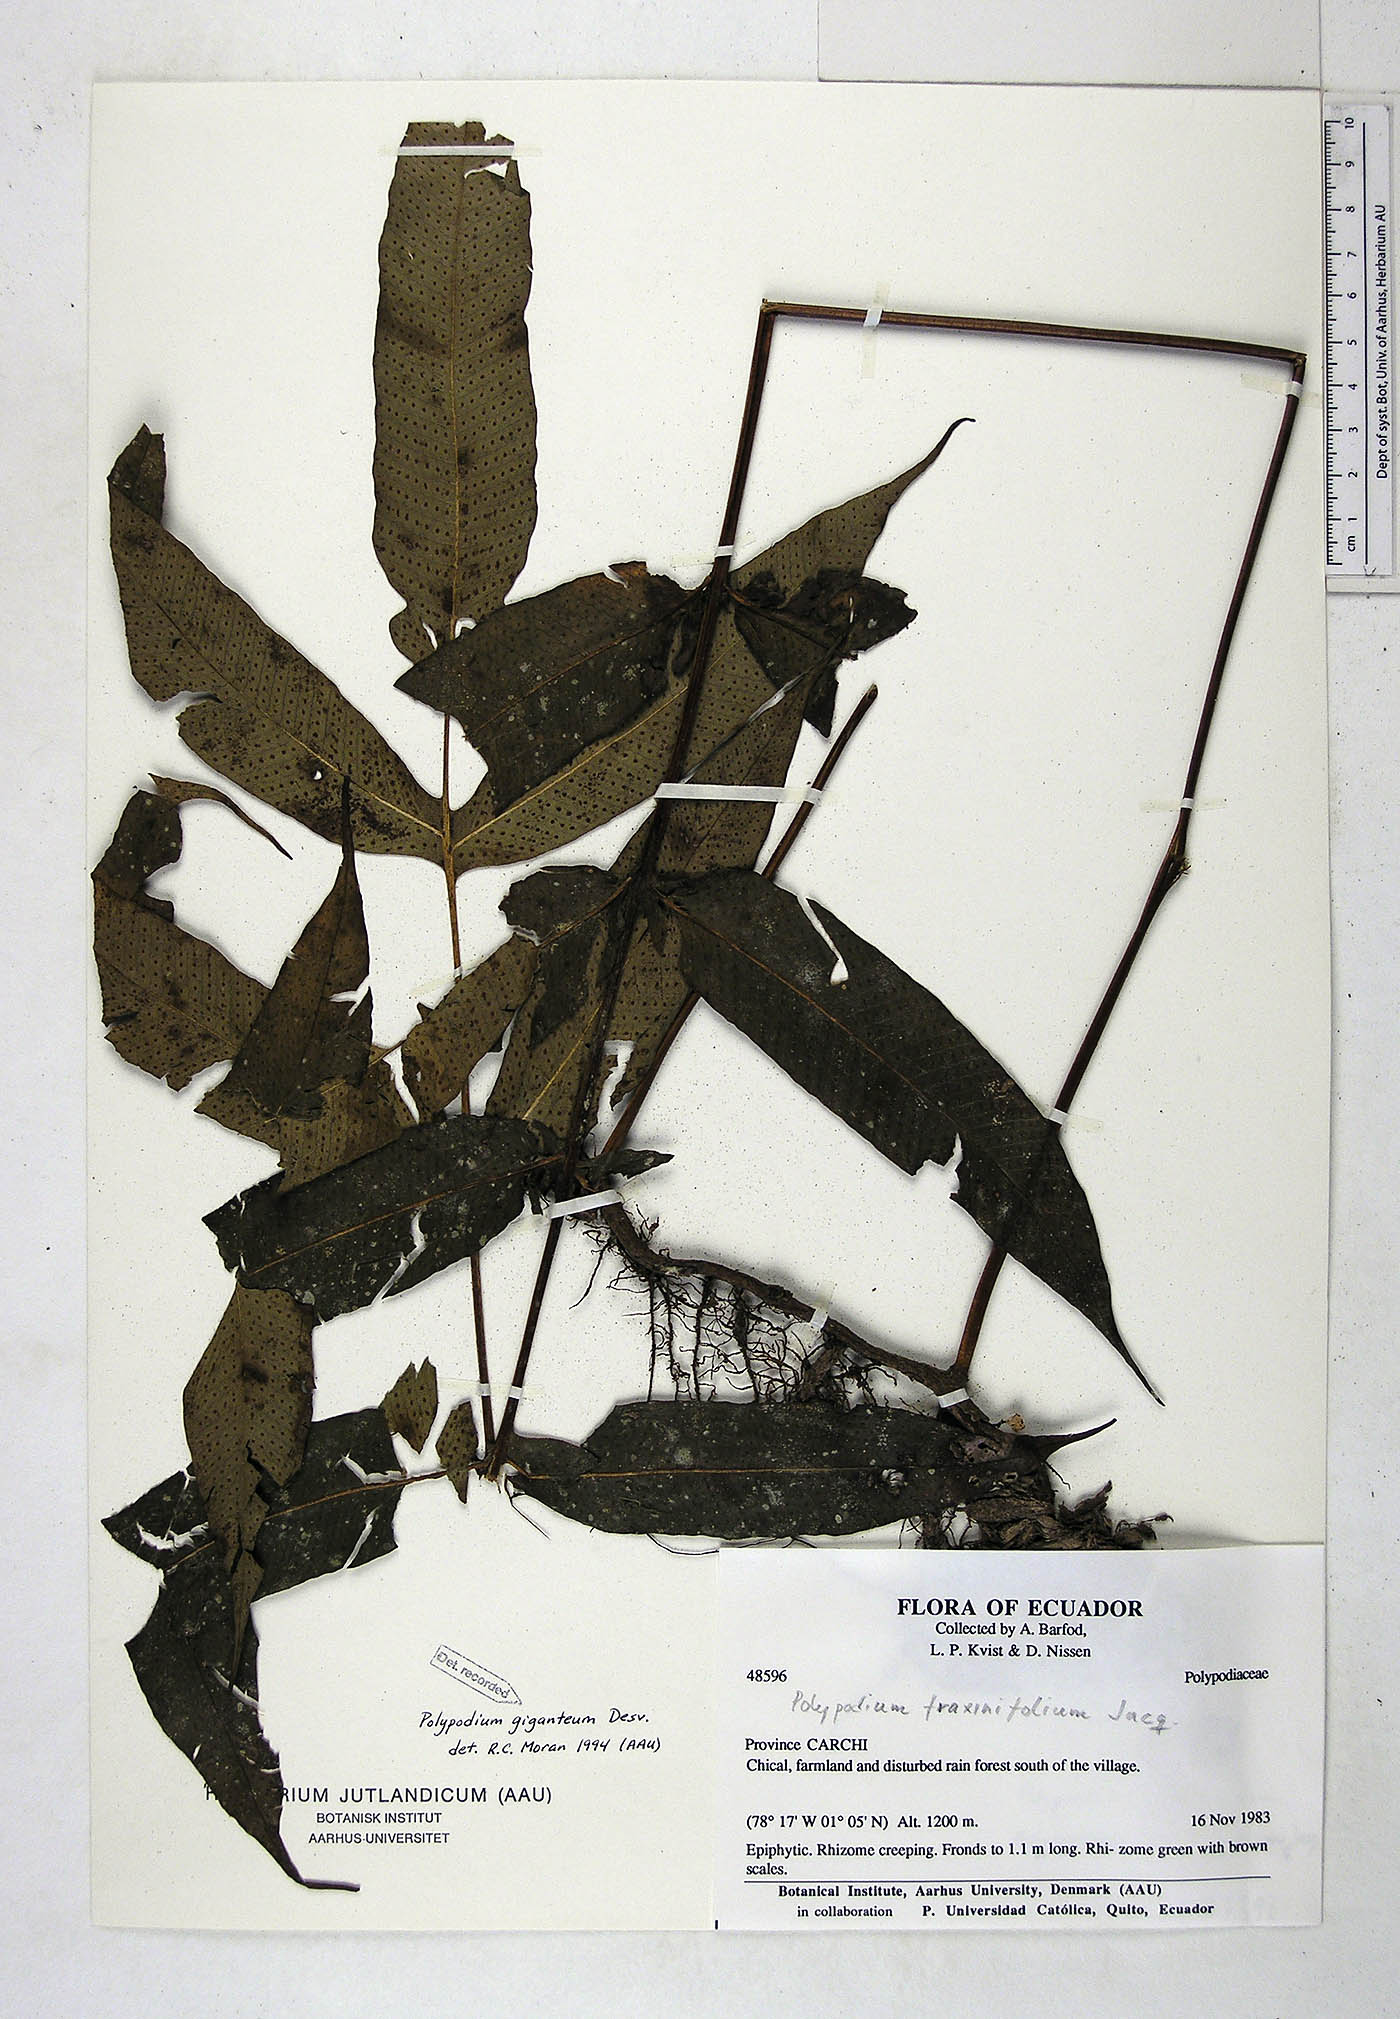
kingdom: Plantae
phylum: Tracheophyta
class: Polypodiopsida
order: Polypodiales
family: Polypodiaceae
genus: Niphidium
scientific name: Niphidium crassifolium
